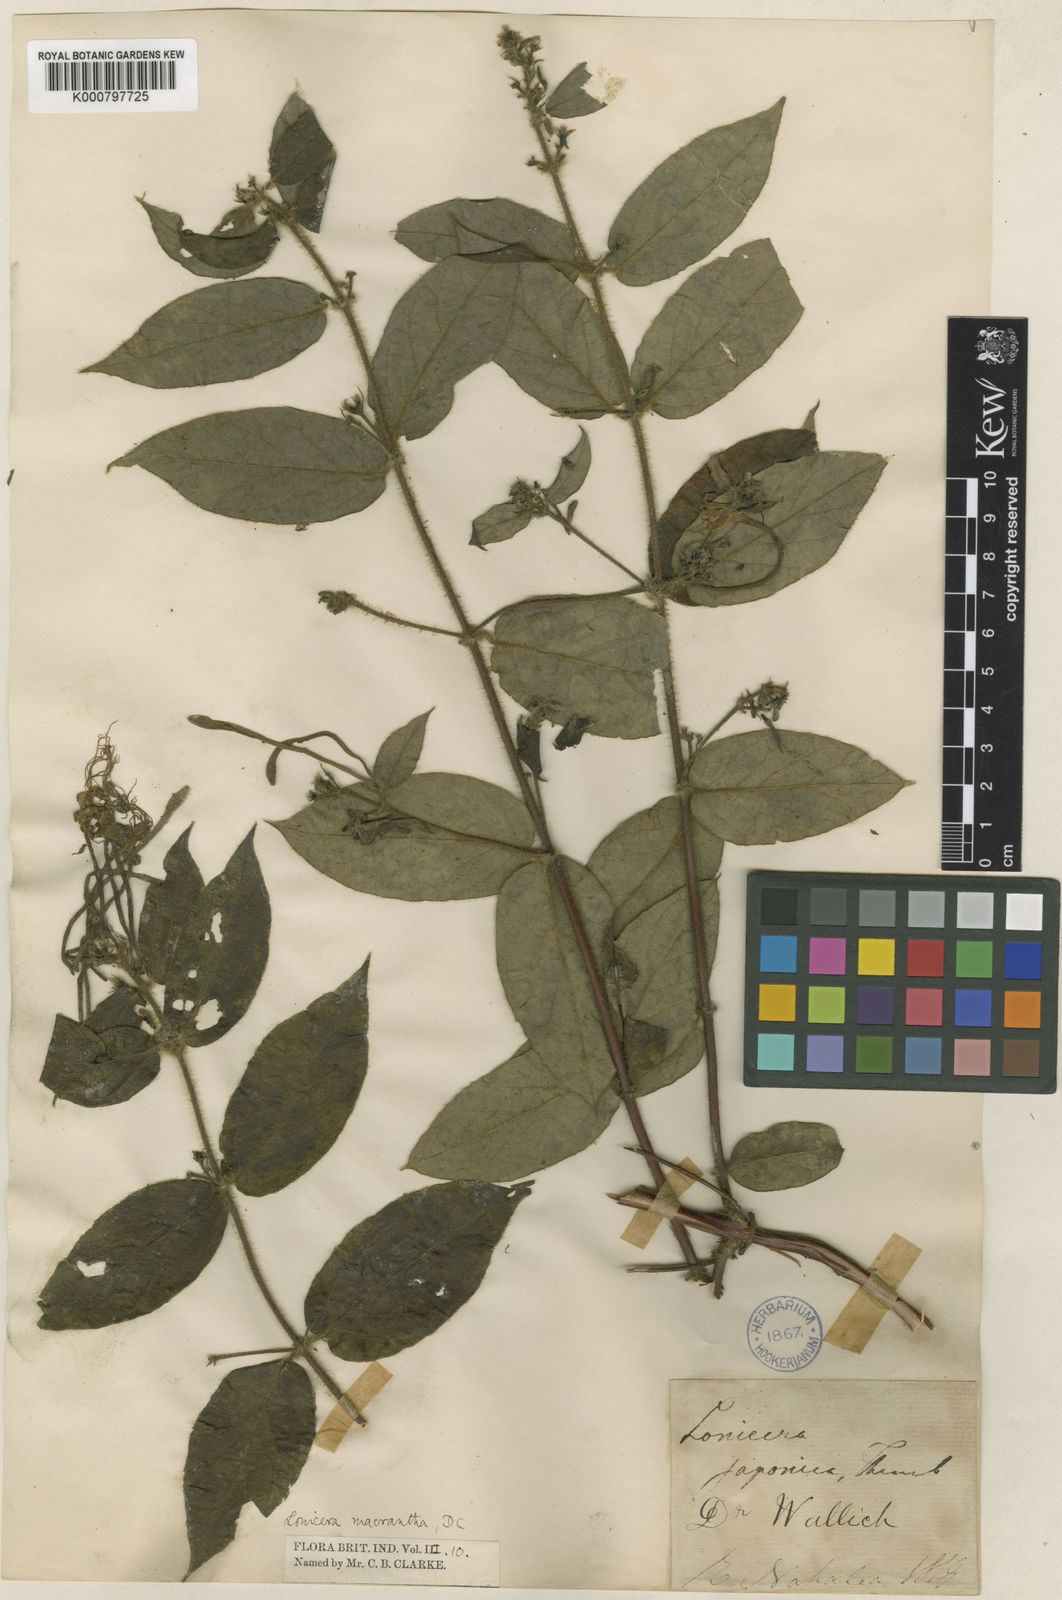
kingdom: Plantae
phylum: Tracheophyta
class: Magnoliopsida
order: Dipsacales
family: Caprifoliaceae
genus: Lonicera
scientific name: Lonicera macrantha
